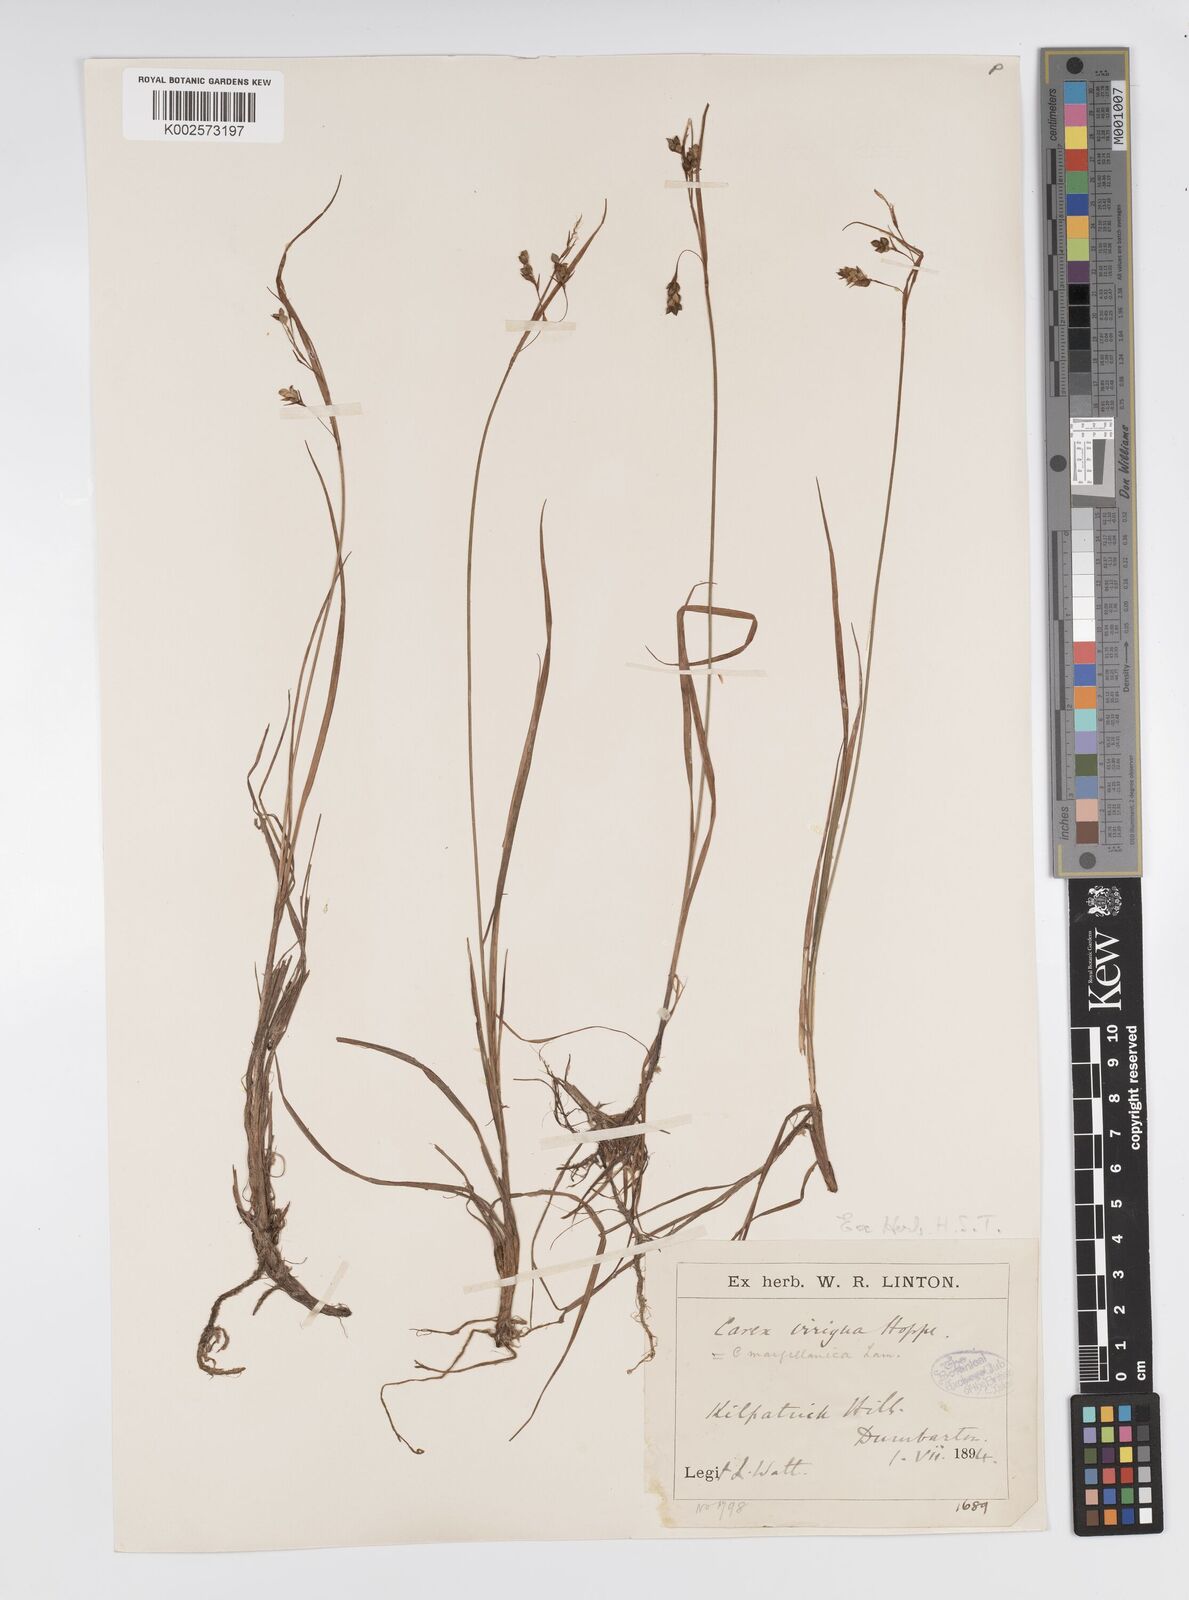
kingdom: Plantae
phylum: Tracheophyta
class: Liliopsida
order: Poales
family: Cyperaceae
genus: Carex
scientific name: Carex magellanica
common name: Bog sedge
